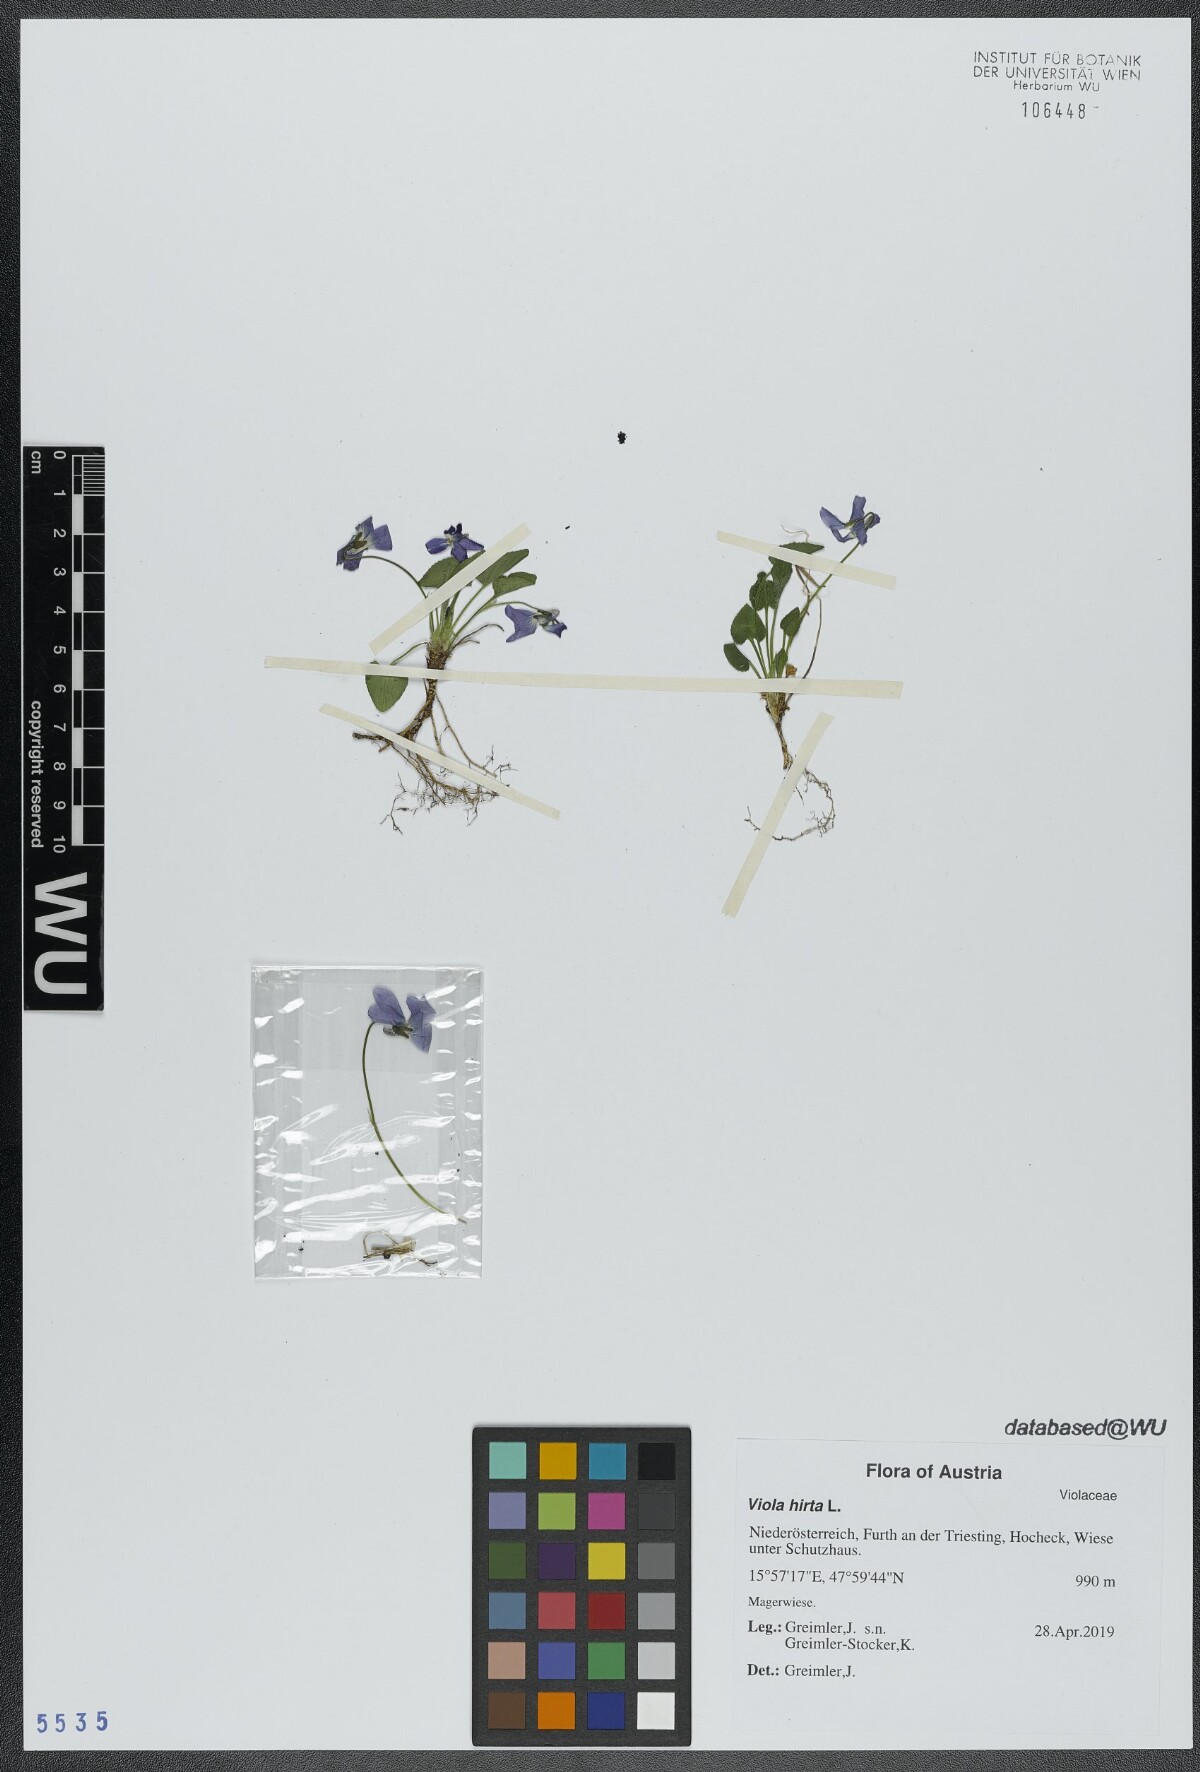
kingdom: Plantae
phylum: Tracheophyta
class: Magnoliopsida
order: Malpighiales
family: Violaceae
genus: Viola
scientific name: Viola hirta
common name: Hairy violet
